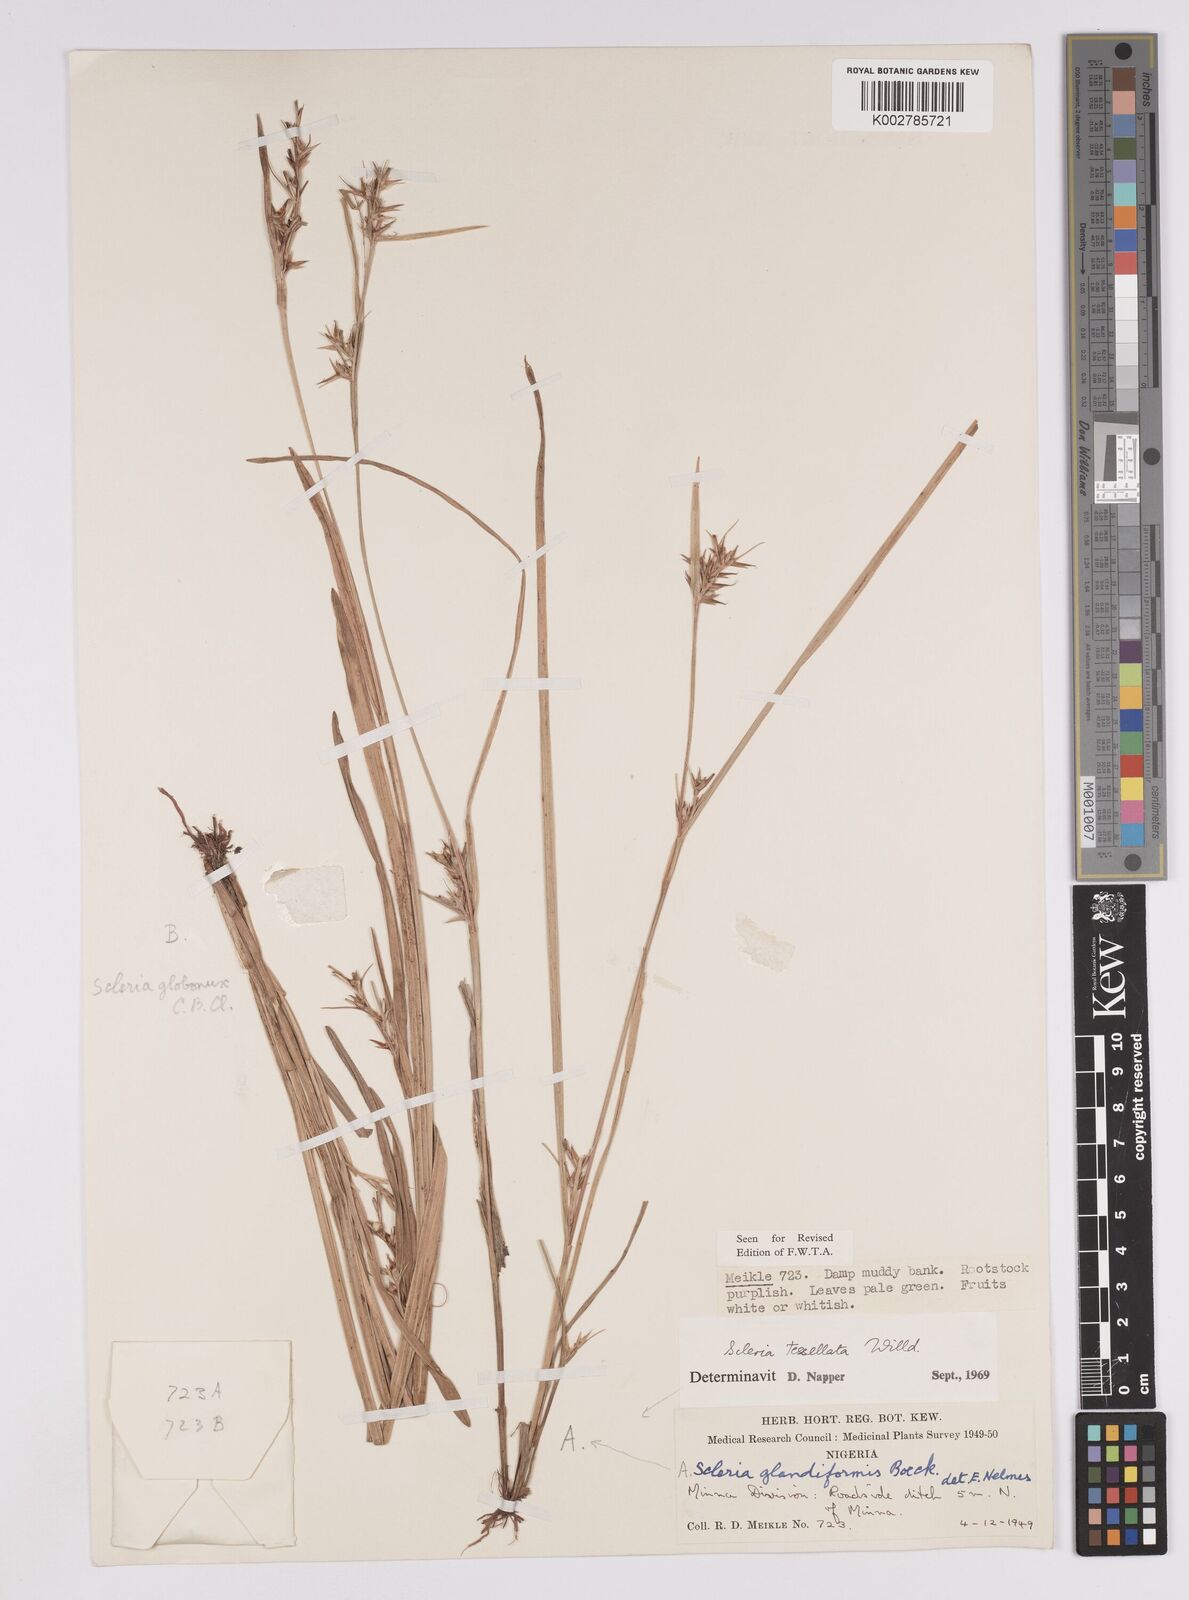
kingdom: Plantae
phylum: Tracheophyta
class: Liliopsida
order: Poales
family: Cyperaceae
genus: Scleria
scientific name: Scleria tessellata
